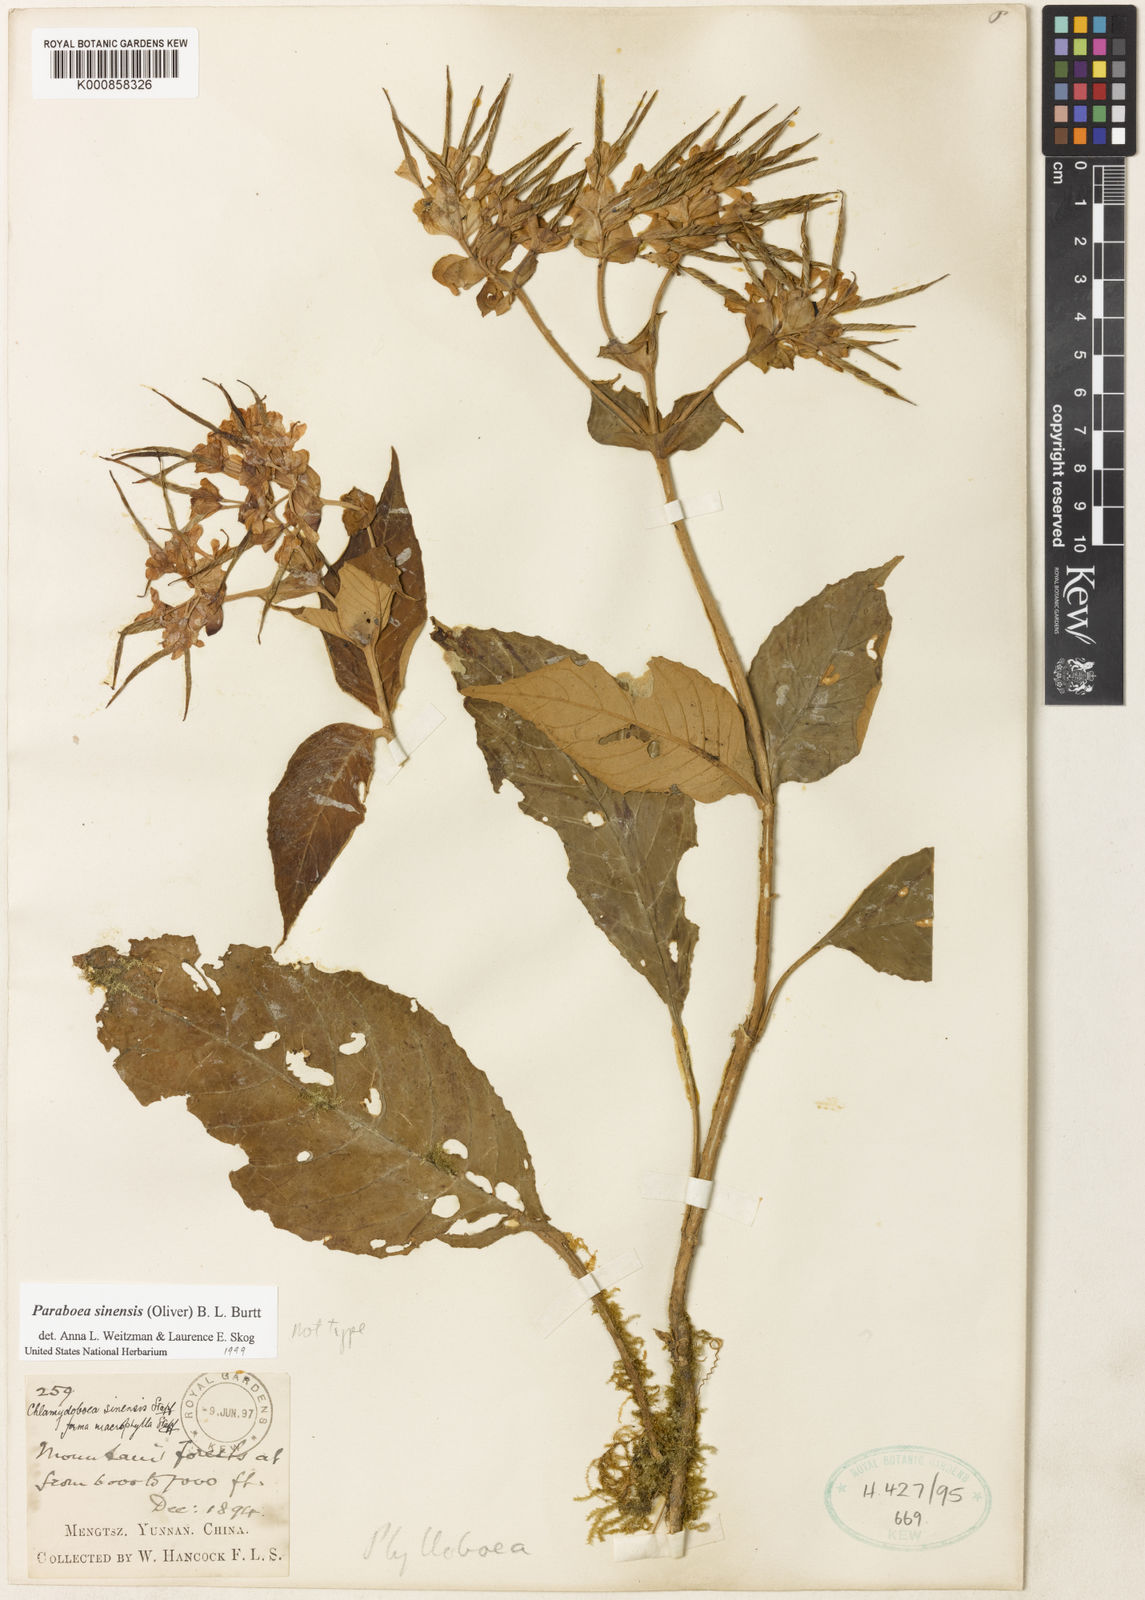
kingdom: Plantae
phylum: Tracheophyta
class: Magnoliopsida
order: Lamiales
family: Gesneriaceae
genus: Paraboea
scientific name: Paraboea sinensis
